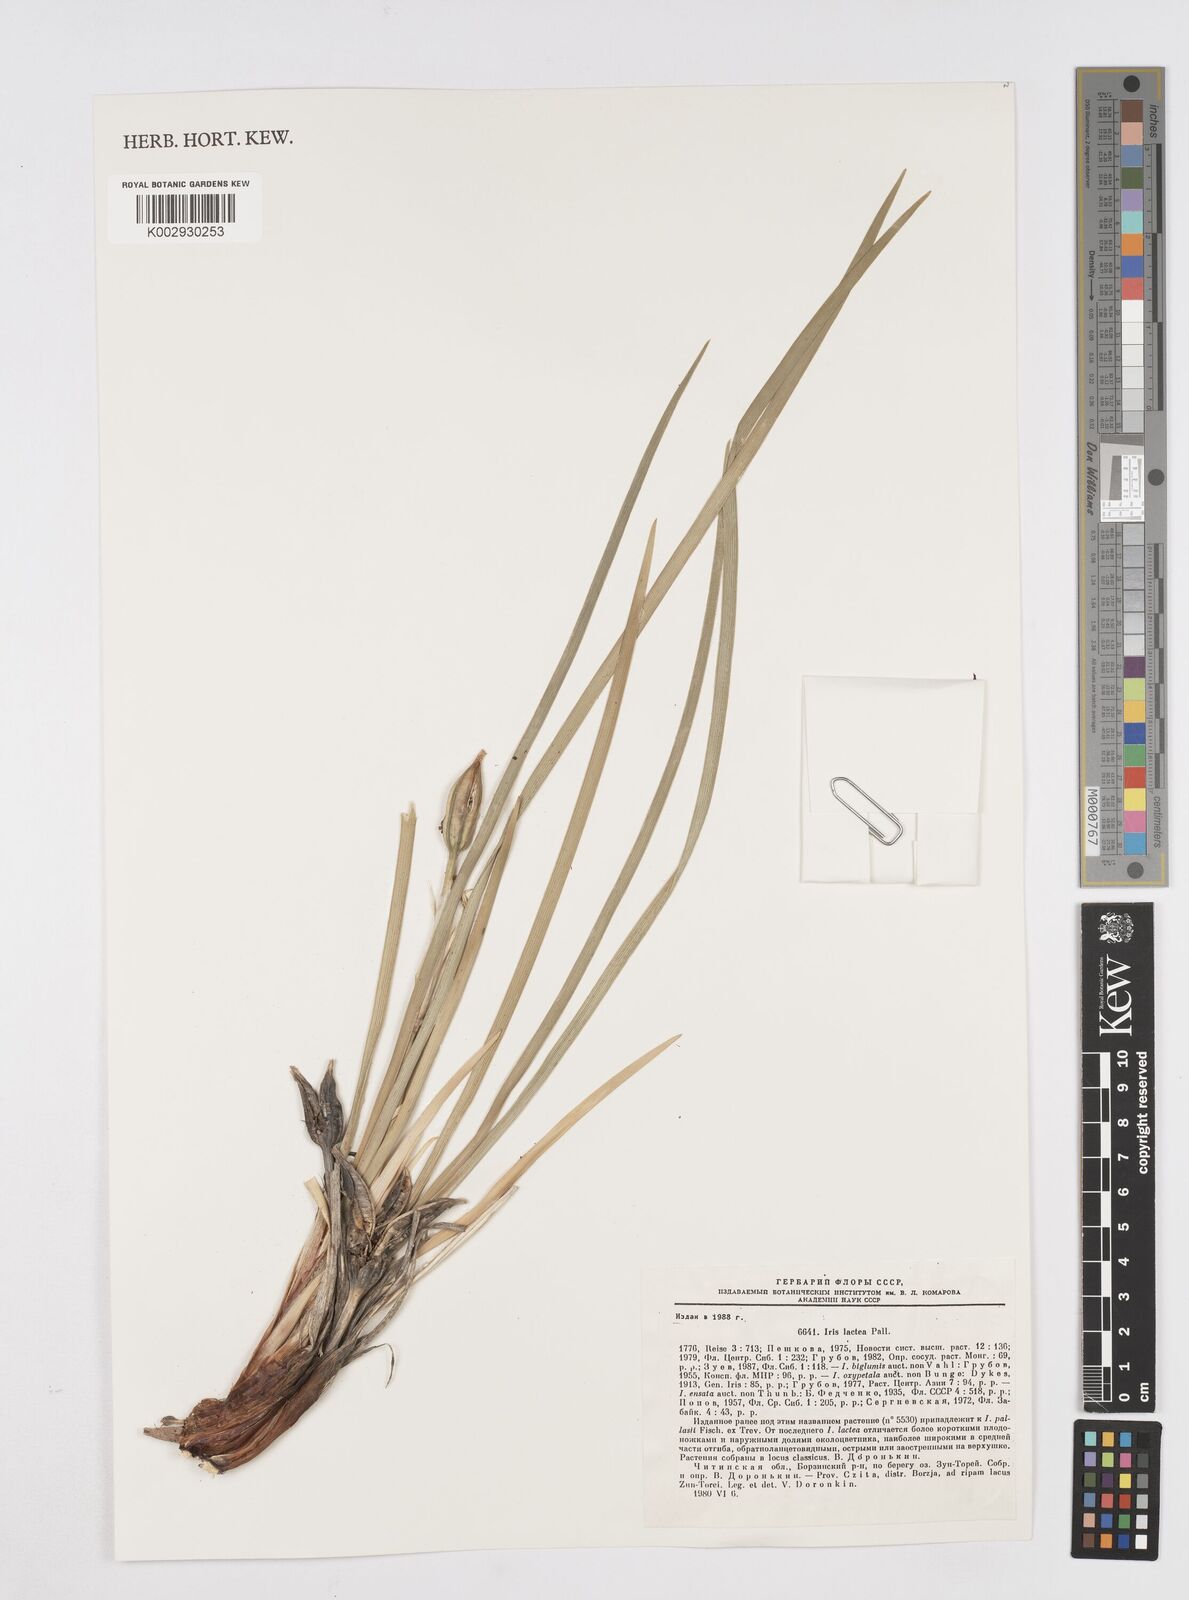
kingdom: Plantae
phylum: Tracheophyta
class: Liliopsida
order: Asparagales
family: Iridaceae
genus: Iris
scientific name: Iris lactea
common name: White-flower chinese iris
